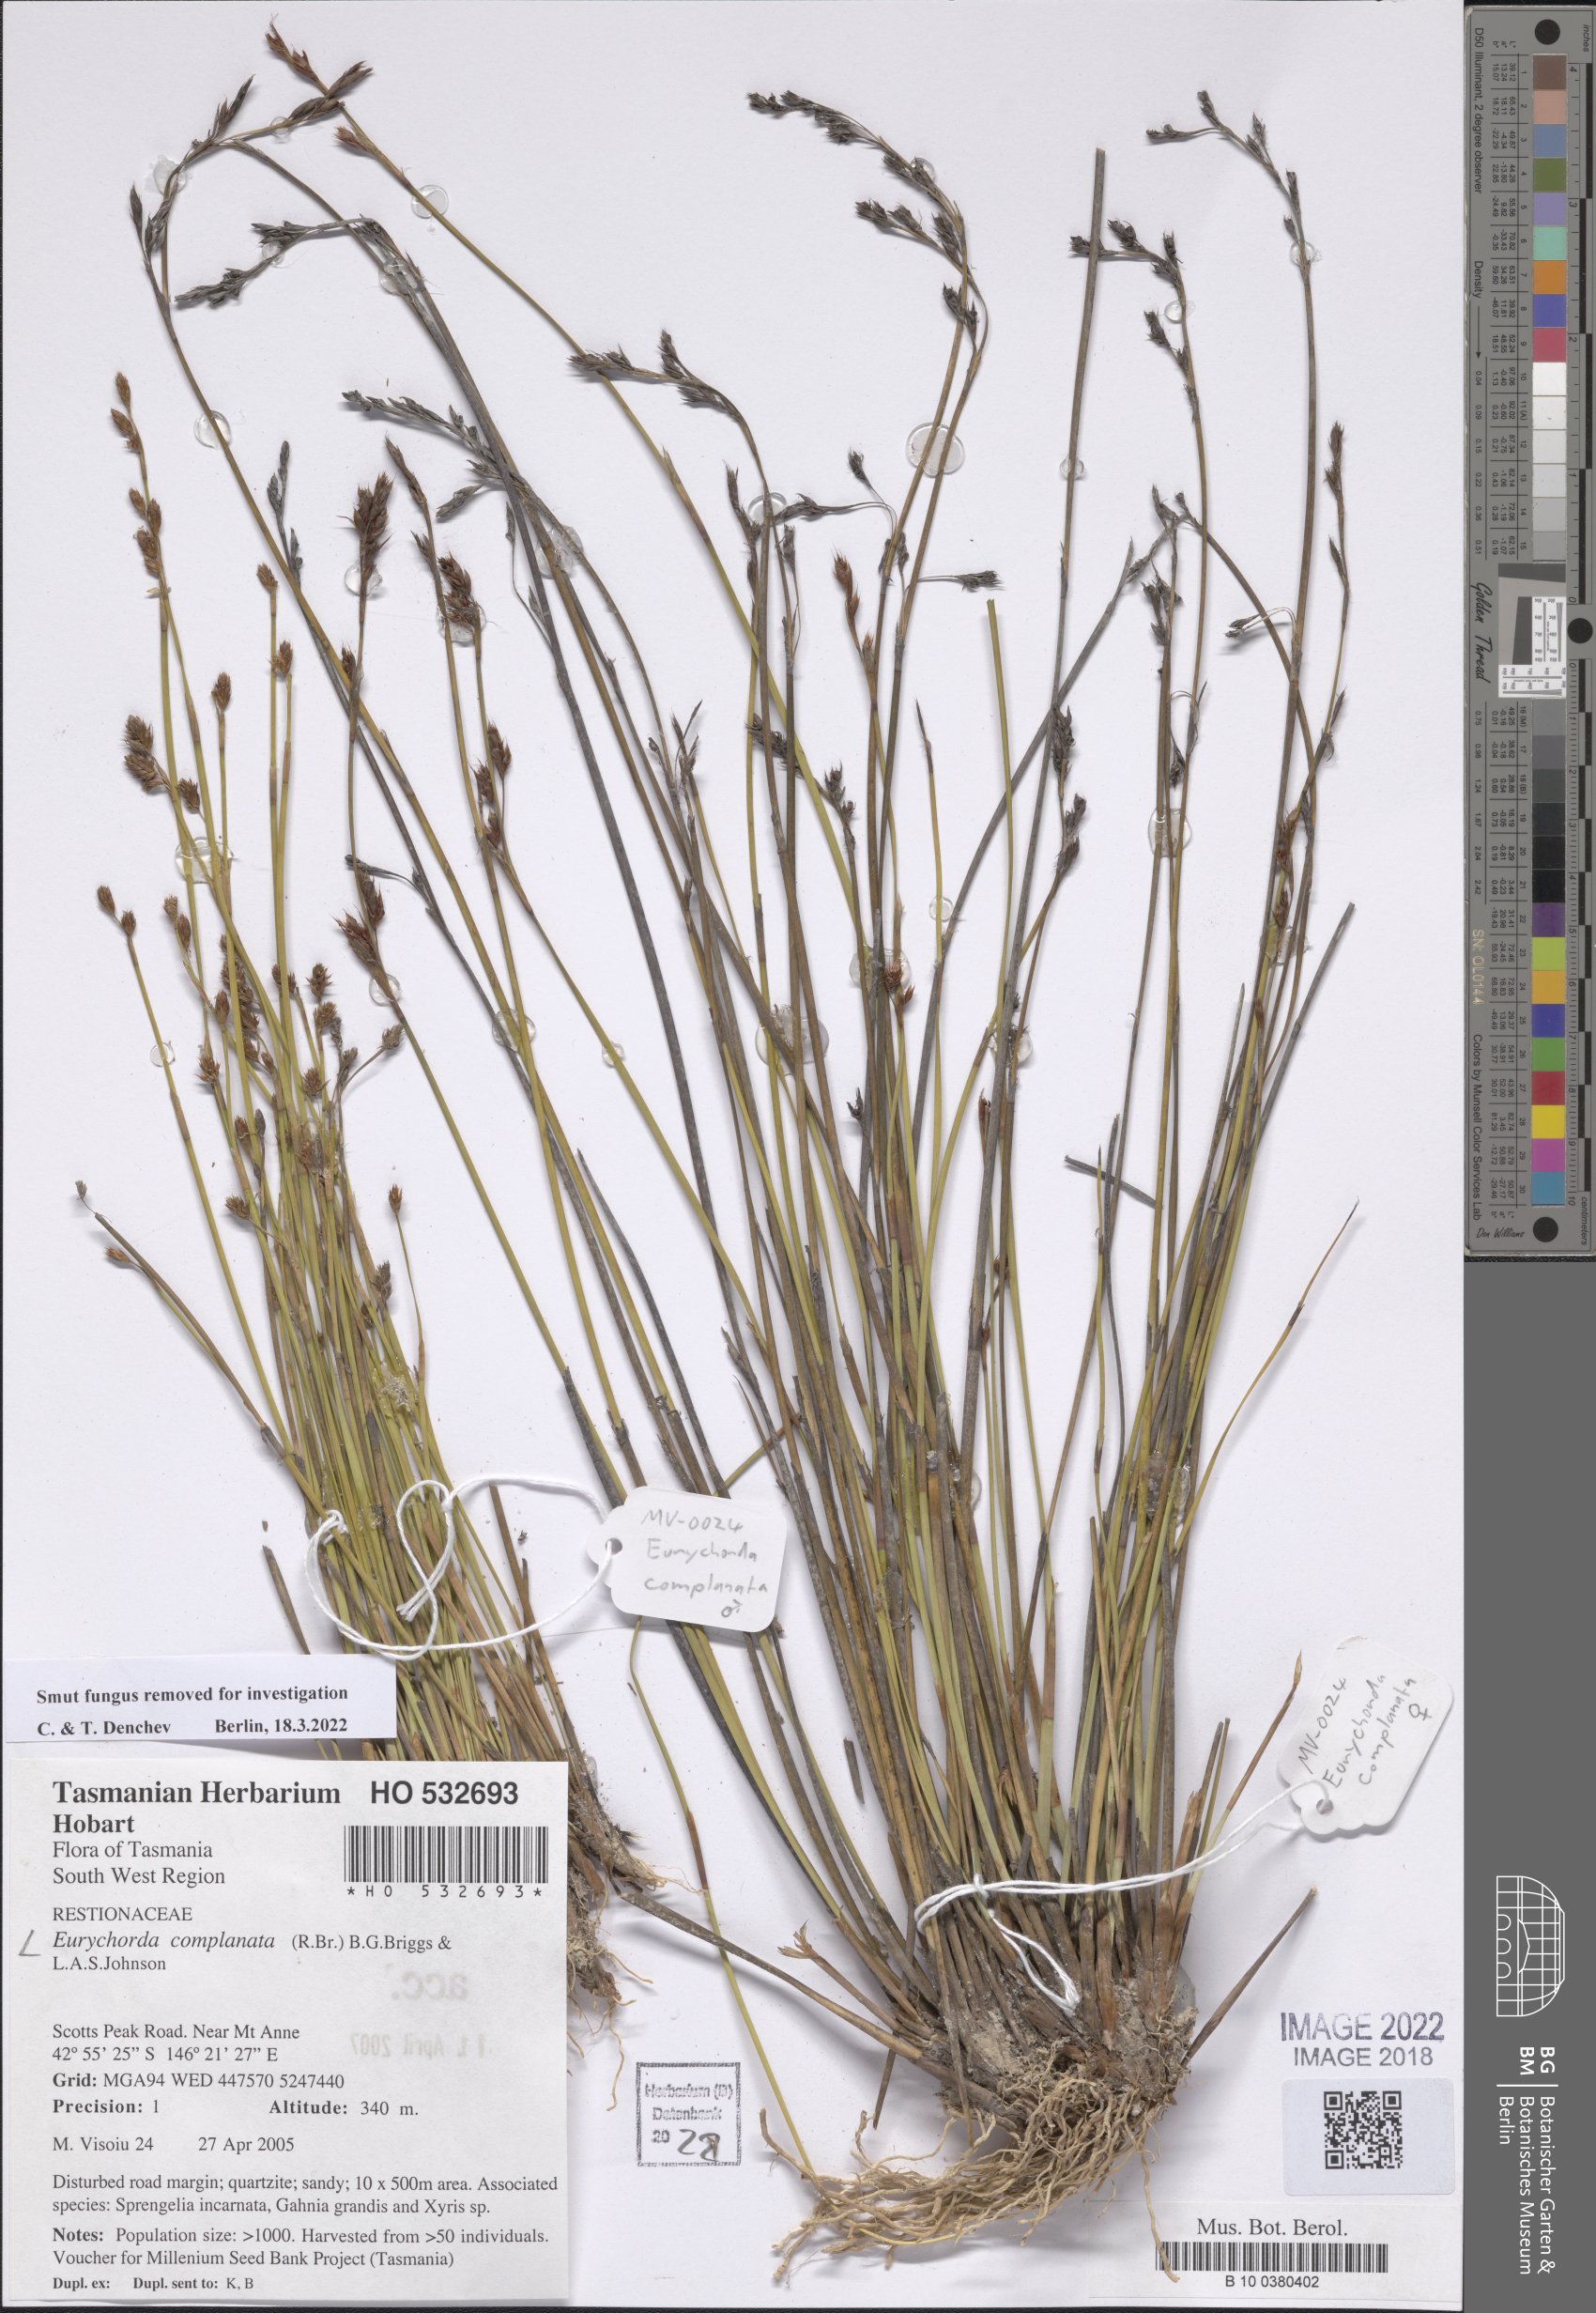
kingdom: Plantae
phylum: Tracheophyta
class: Liliopsida
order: Poales
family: Restionaceae
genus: Eurychorda
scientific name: Eurychorda complanata
